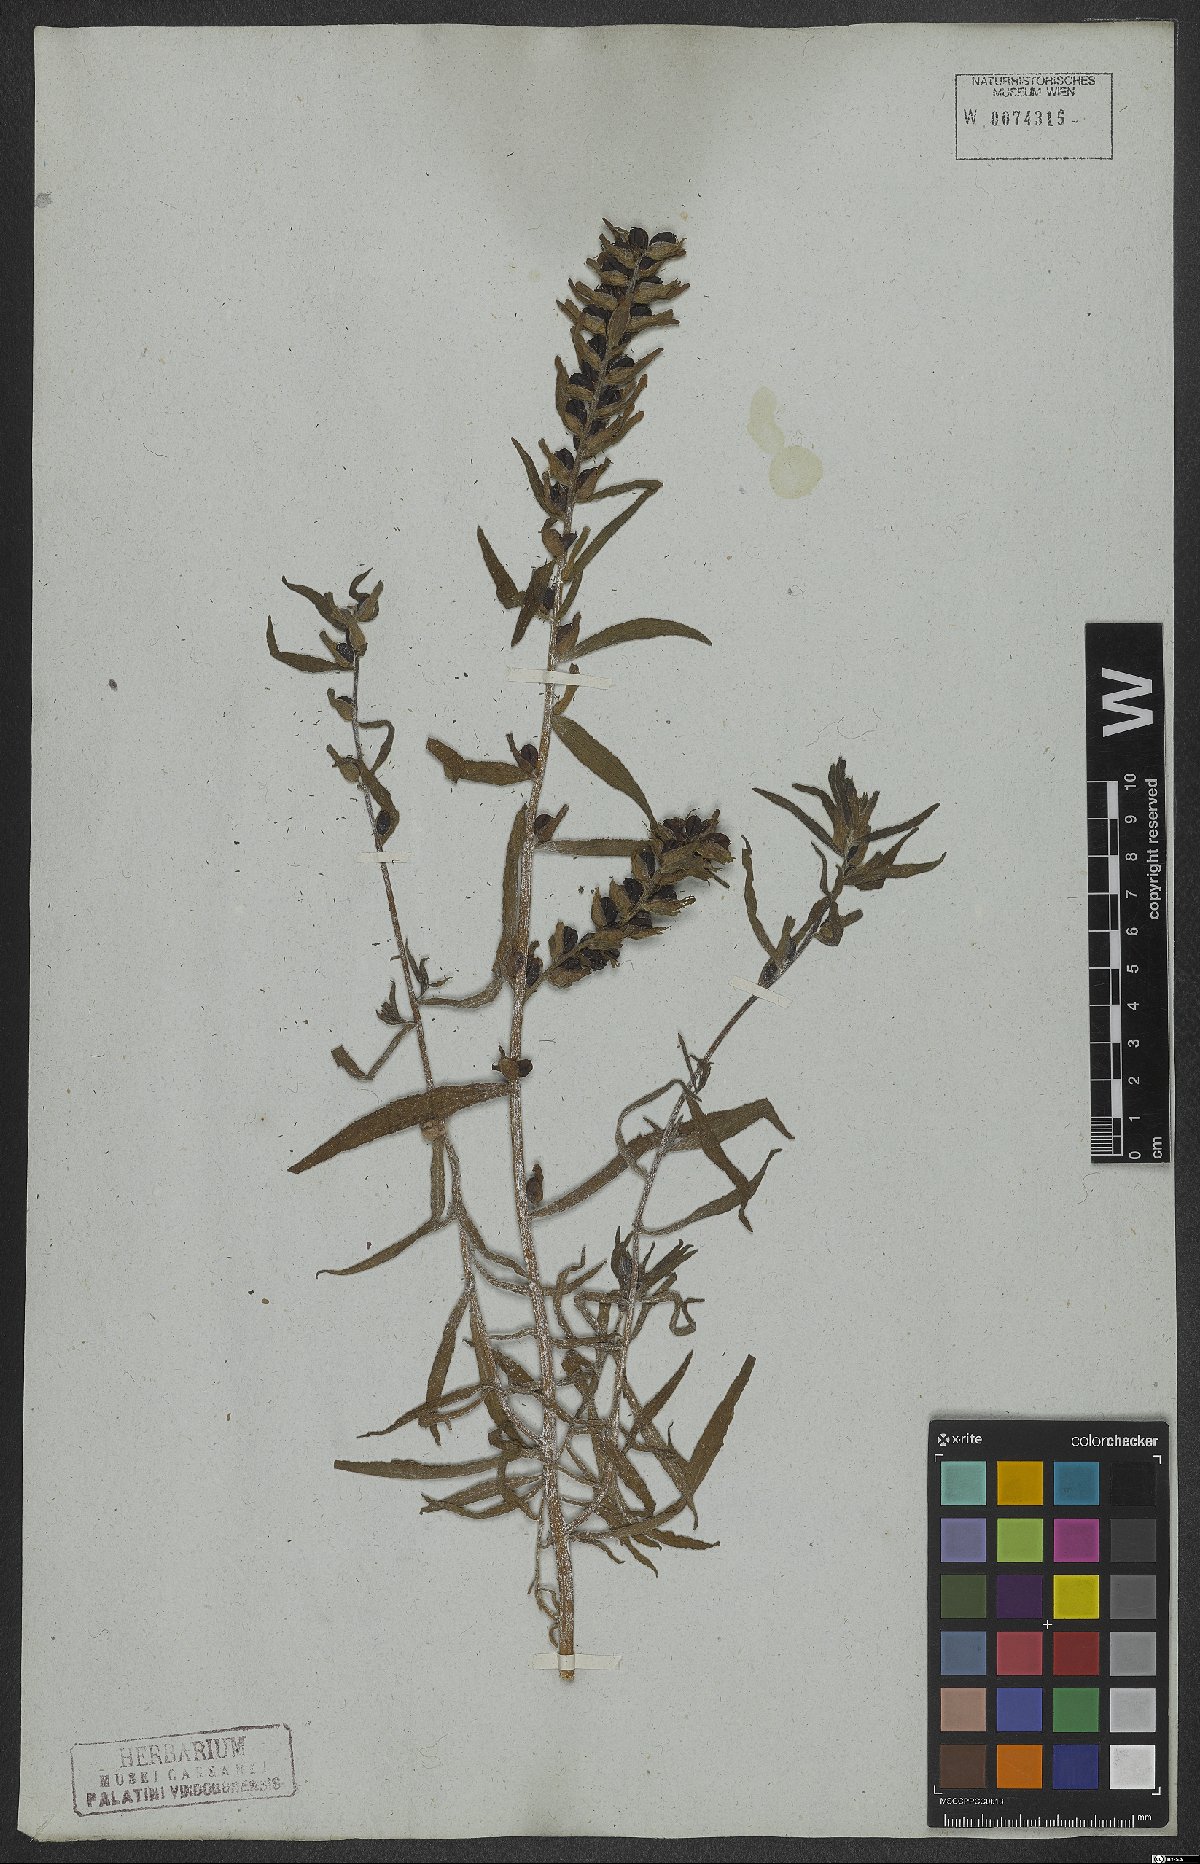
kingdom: Plantae
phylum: Tracheophyta
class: Magnoliopsida
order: Lamiales
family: Orobanchaceae
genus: Castilleja
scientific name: Castilleja arvensis
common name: Indian paintbrush
